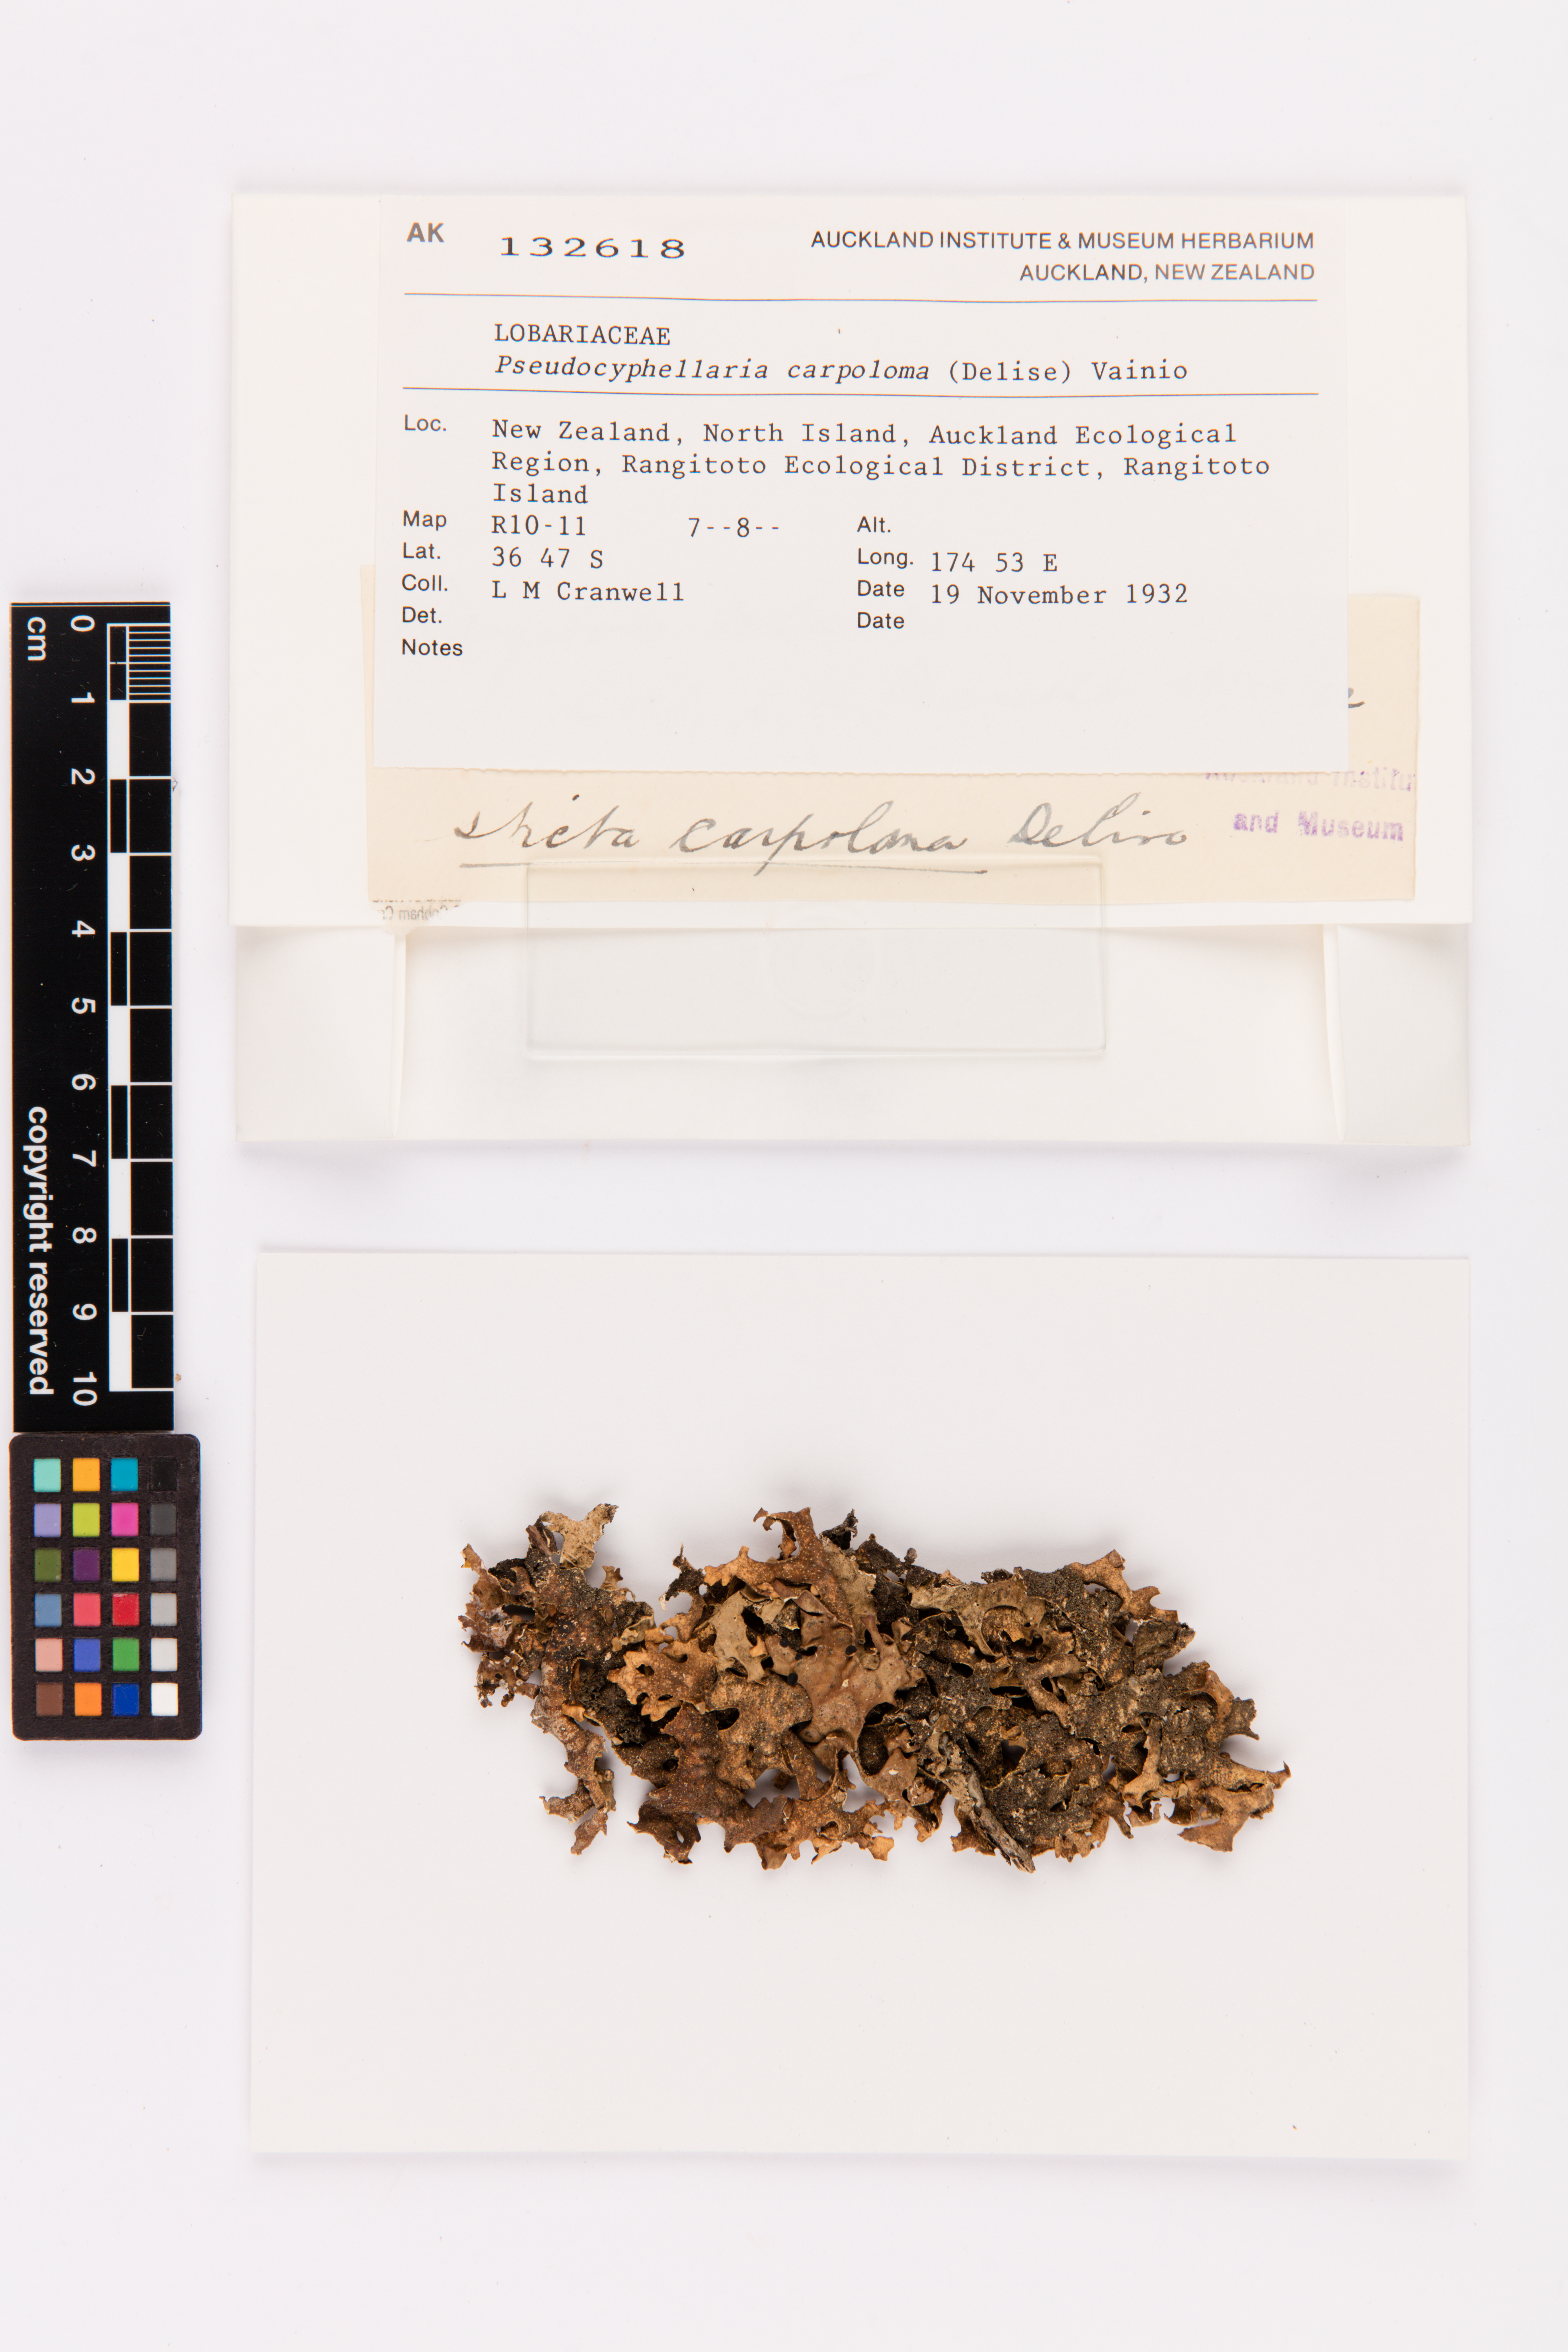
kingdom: Fungi
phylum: Ascomycota
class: Lecanoromycetes
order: Peltigerales
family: Lobariaceae
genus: Pseudocyphellaria
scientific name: Pseudocyphellaria carpoloma
